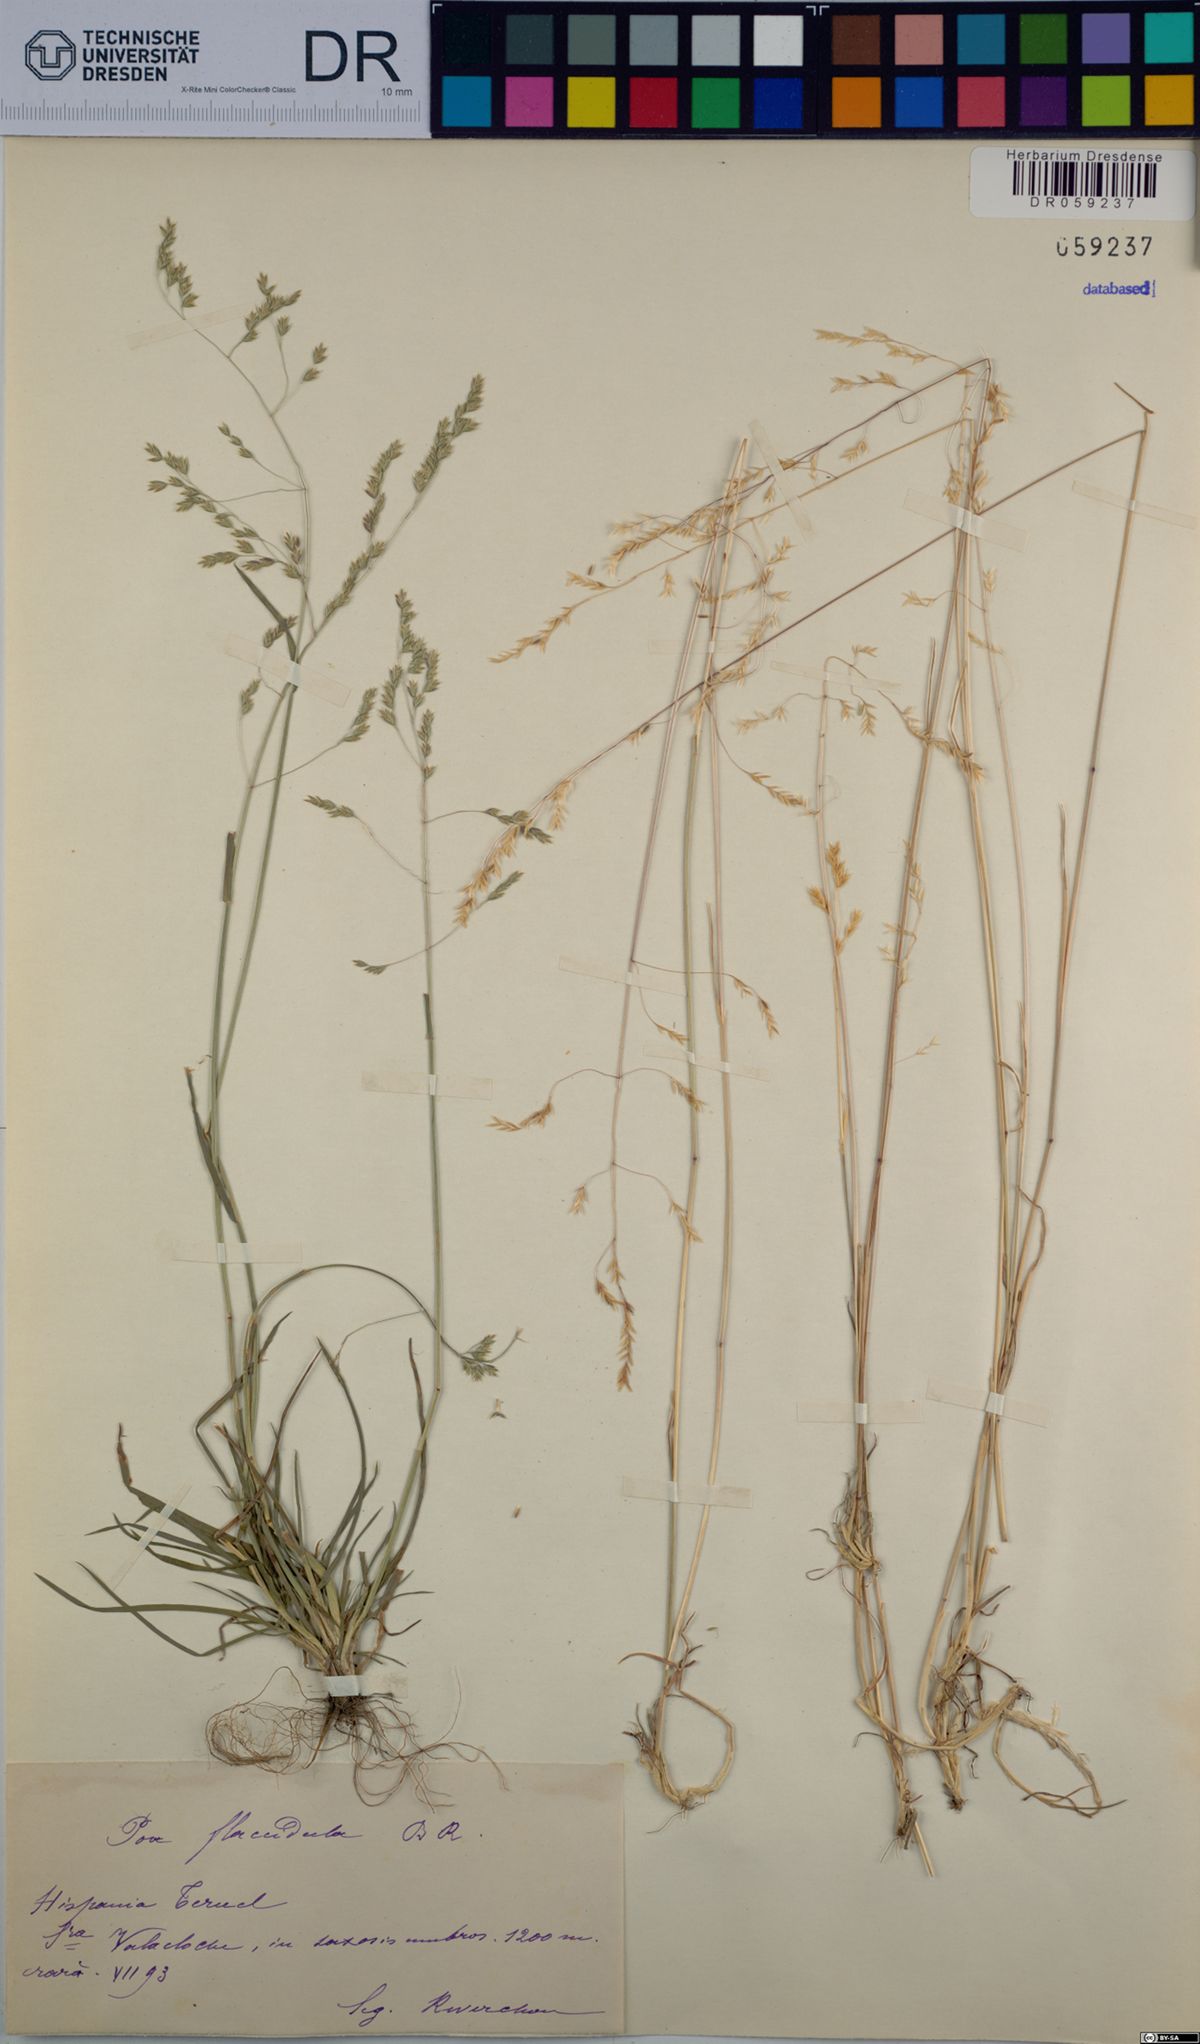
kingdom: Plantae
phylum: Tracheophyta
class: Liliopsida
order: Poales
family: Poaceae
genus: Poa
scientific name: Poa flaccidula
